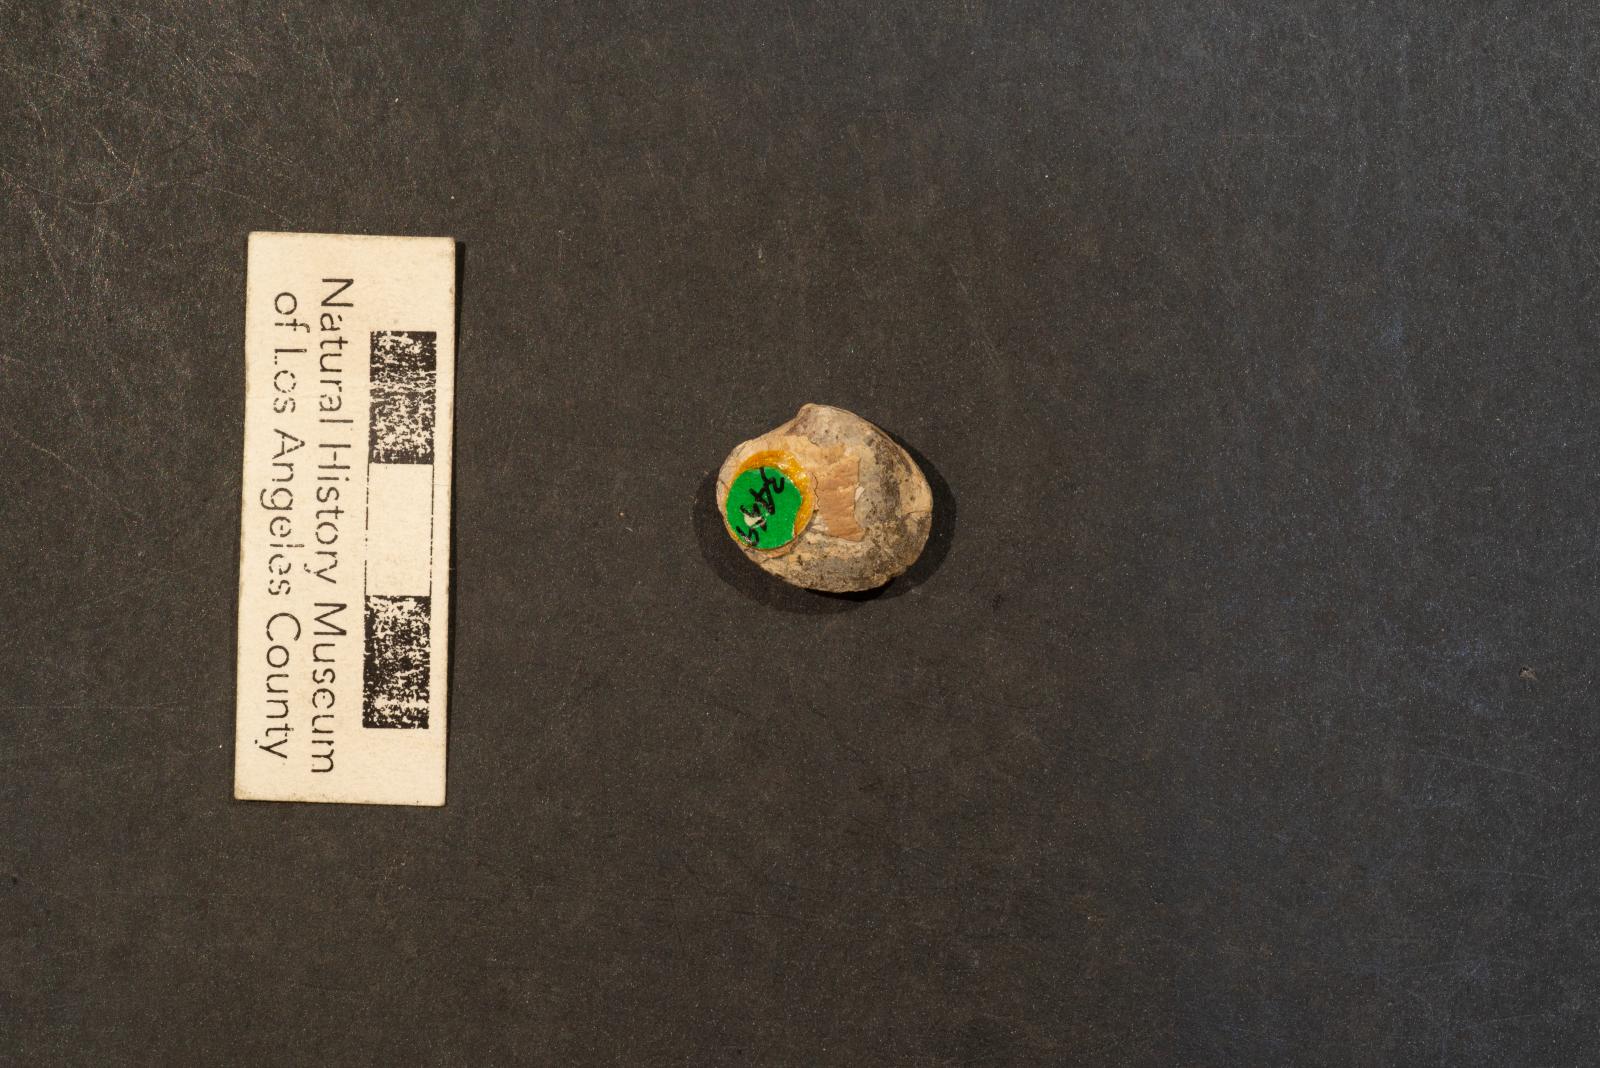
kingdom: Animalia
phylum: Mollusca
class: Bivalvia
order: Venerida
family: Veneridae
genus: Callistalox
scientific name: Callistalox Meretrix arata
